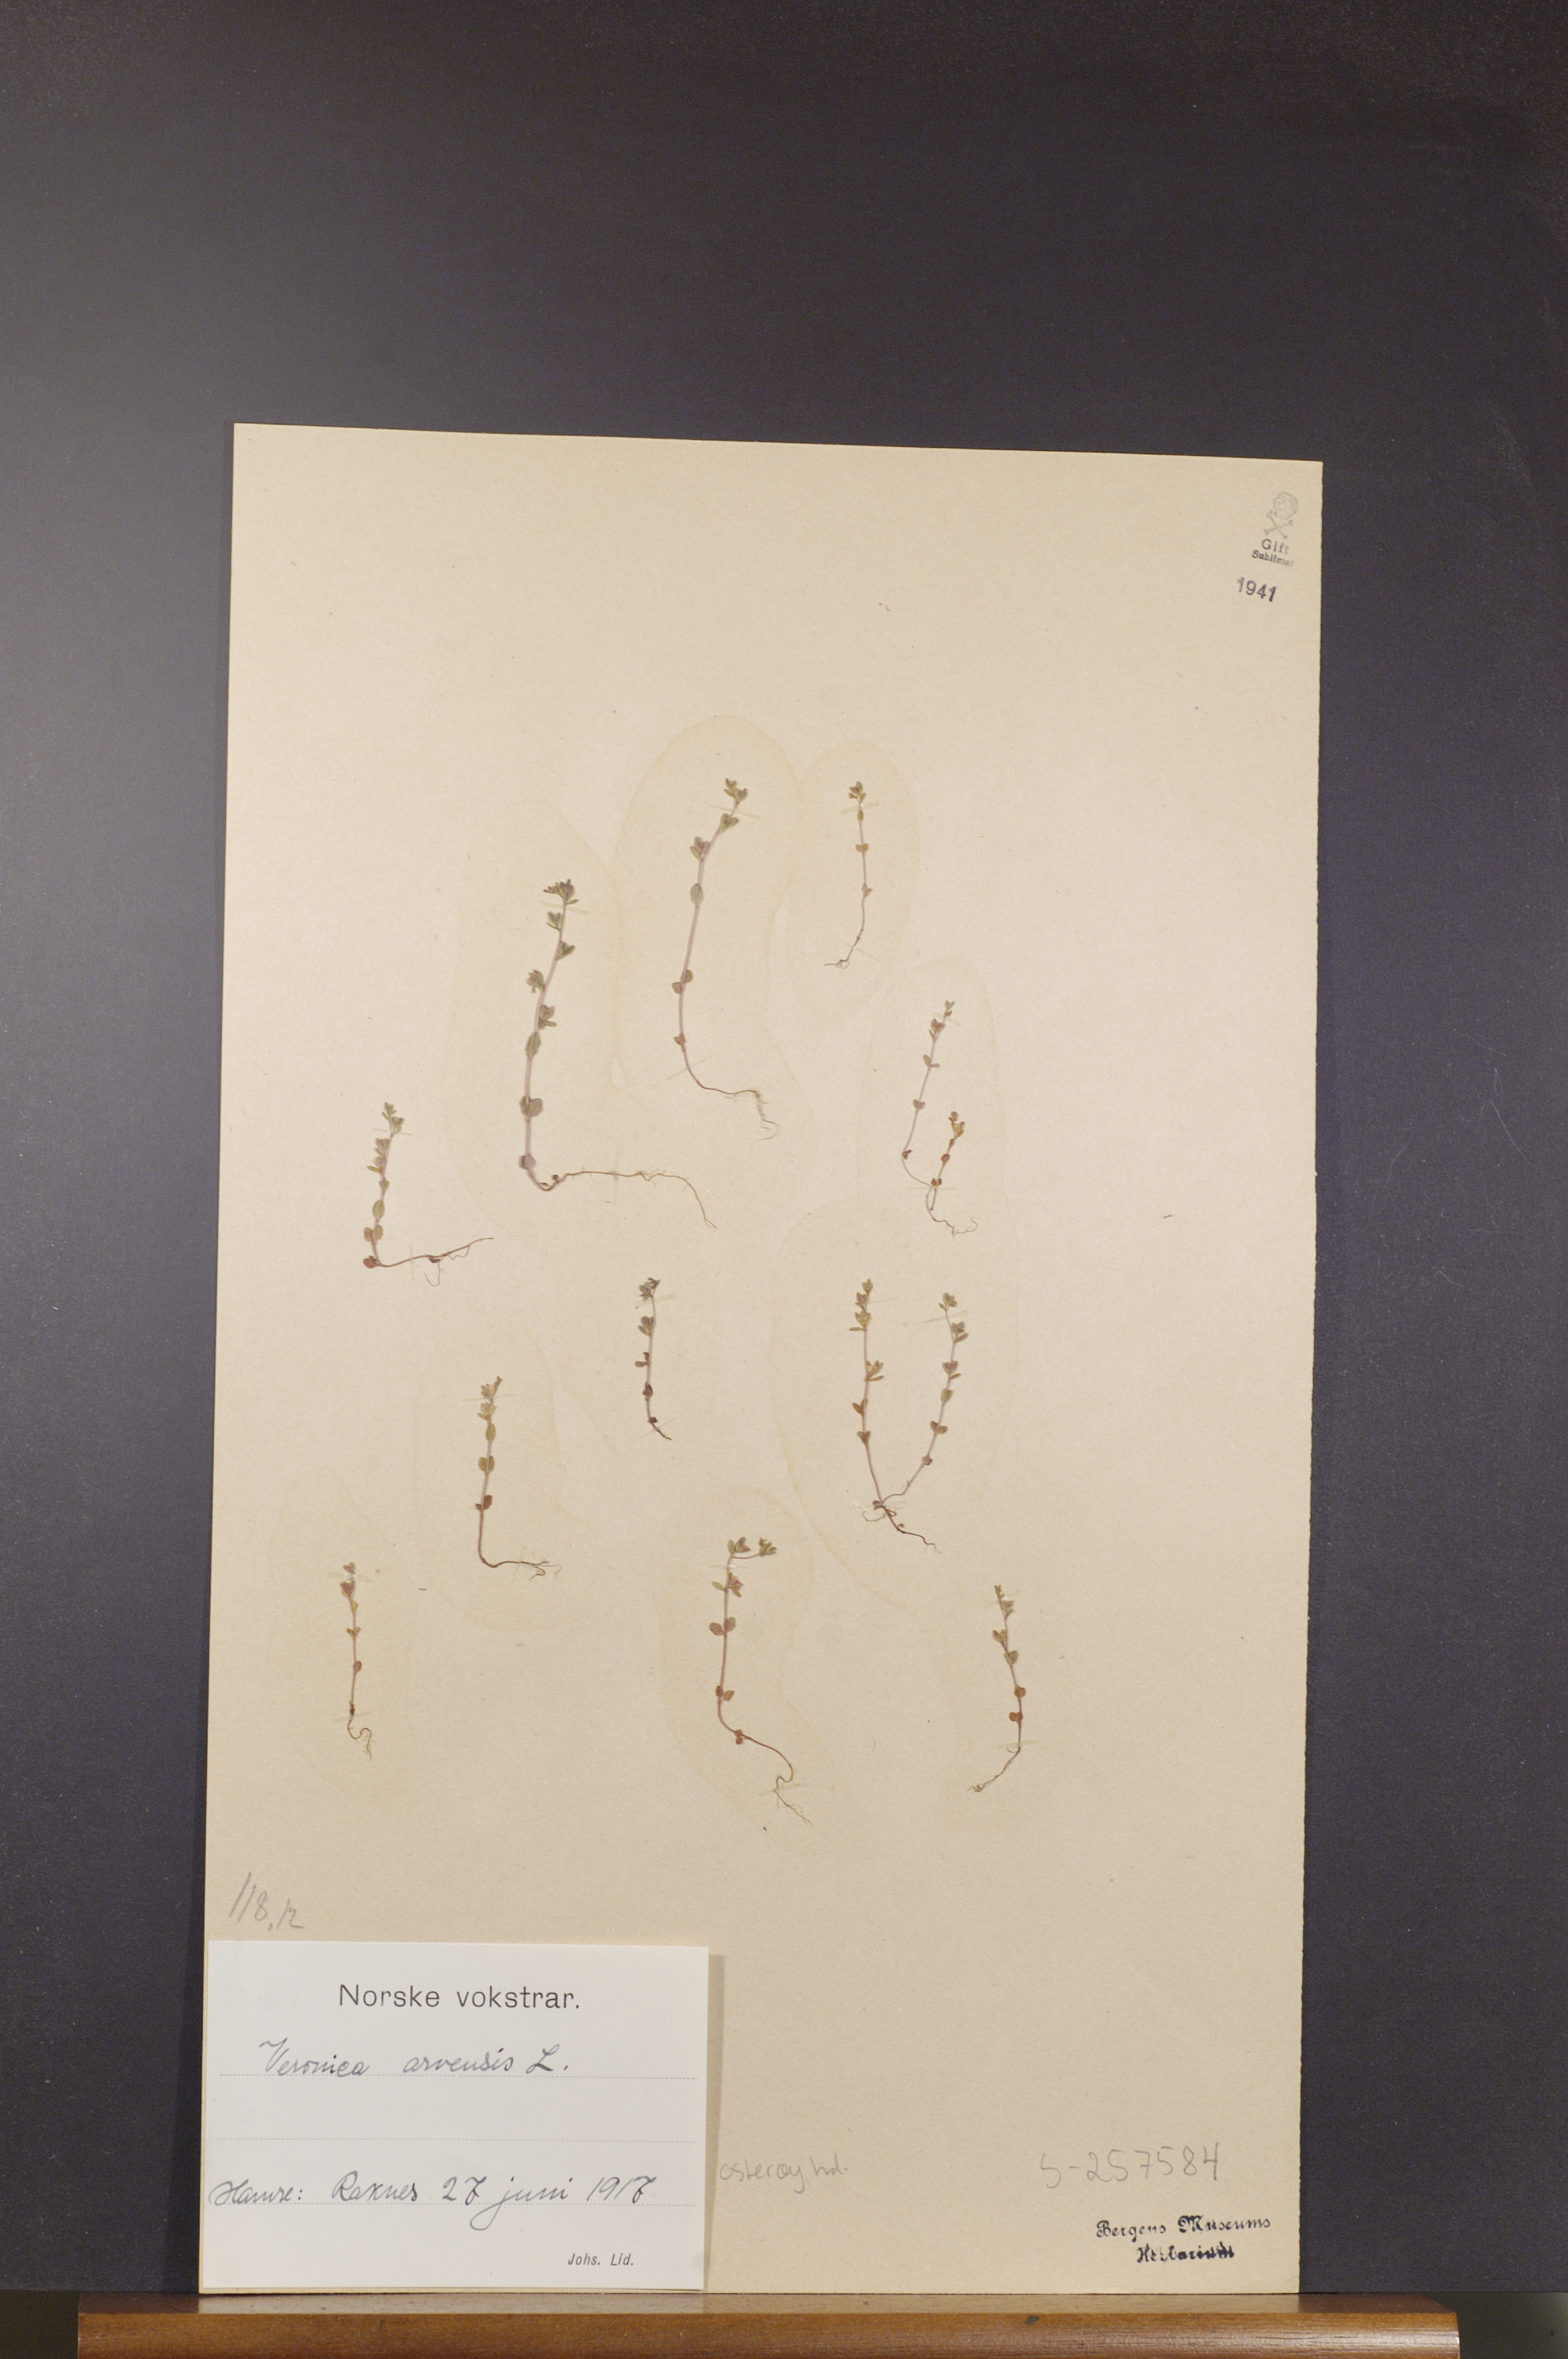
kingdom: Plantae
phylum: Tracheophyta
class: Magnoliopsida
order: Lamiales
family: Plantaginaceae
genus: Veronica
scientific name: Veronica arvensis
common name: Corn speedwell
